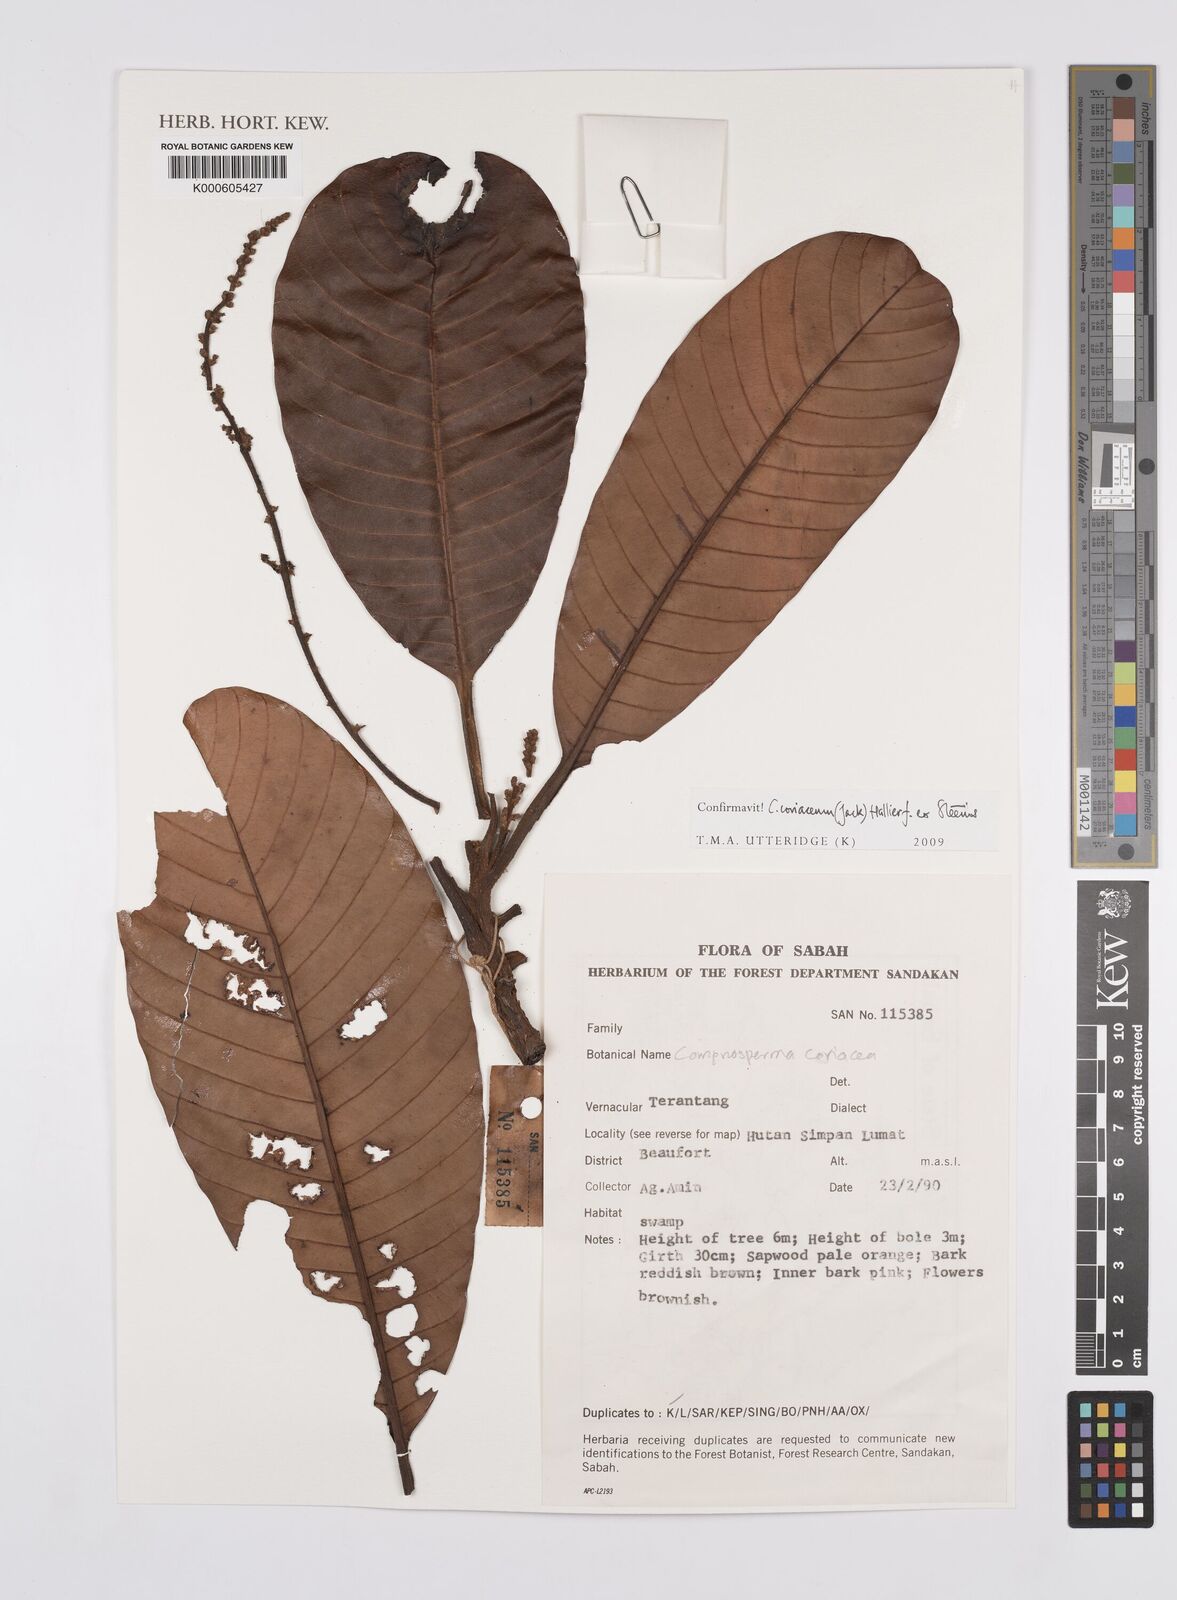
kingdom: Plantae
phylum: Tracheophyta
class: Magnoliopsida
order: Sapindales
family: Anacardiaceae
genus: Campnosperma
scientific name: Campnosperma
